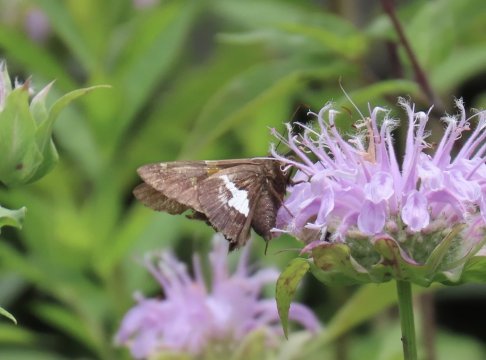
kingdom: Animalia
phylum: Arthropoda
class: Insecta
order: Lepidoptera
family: Hesperiidae
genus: Epargyreus
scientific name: Epargyreus clarus
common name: Silver-spotted Skipper
